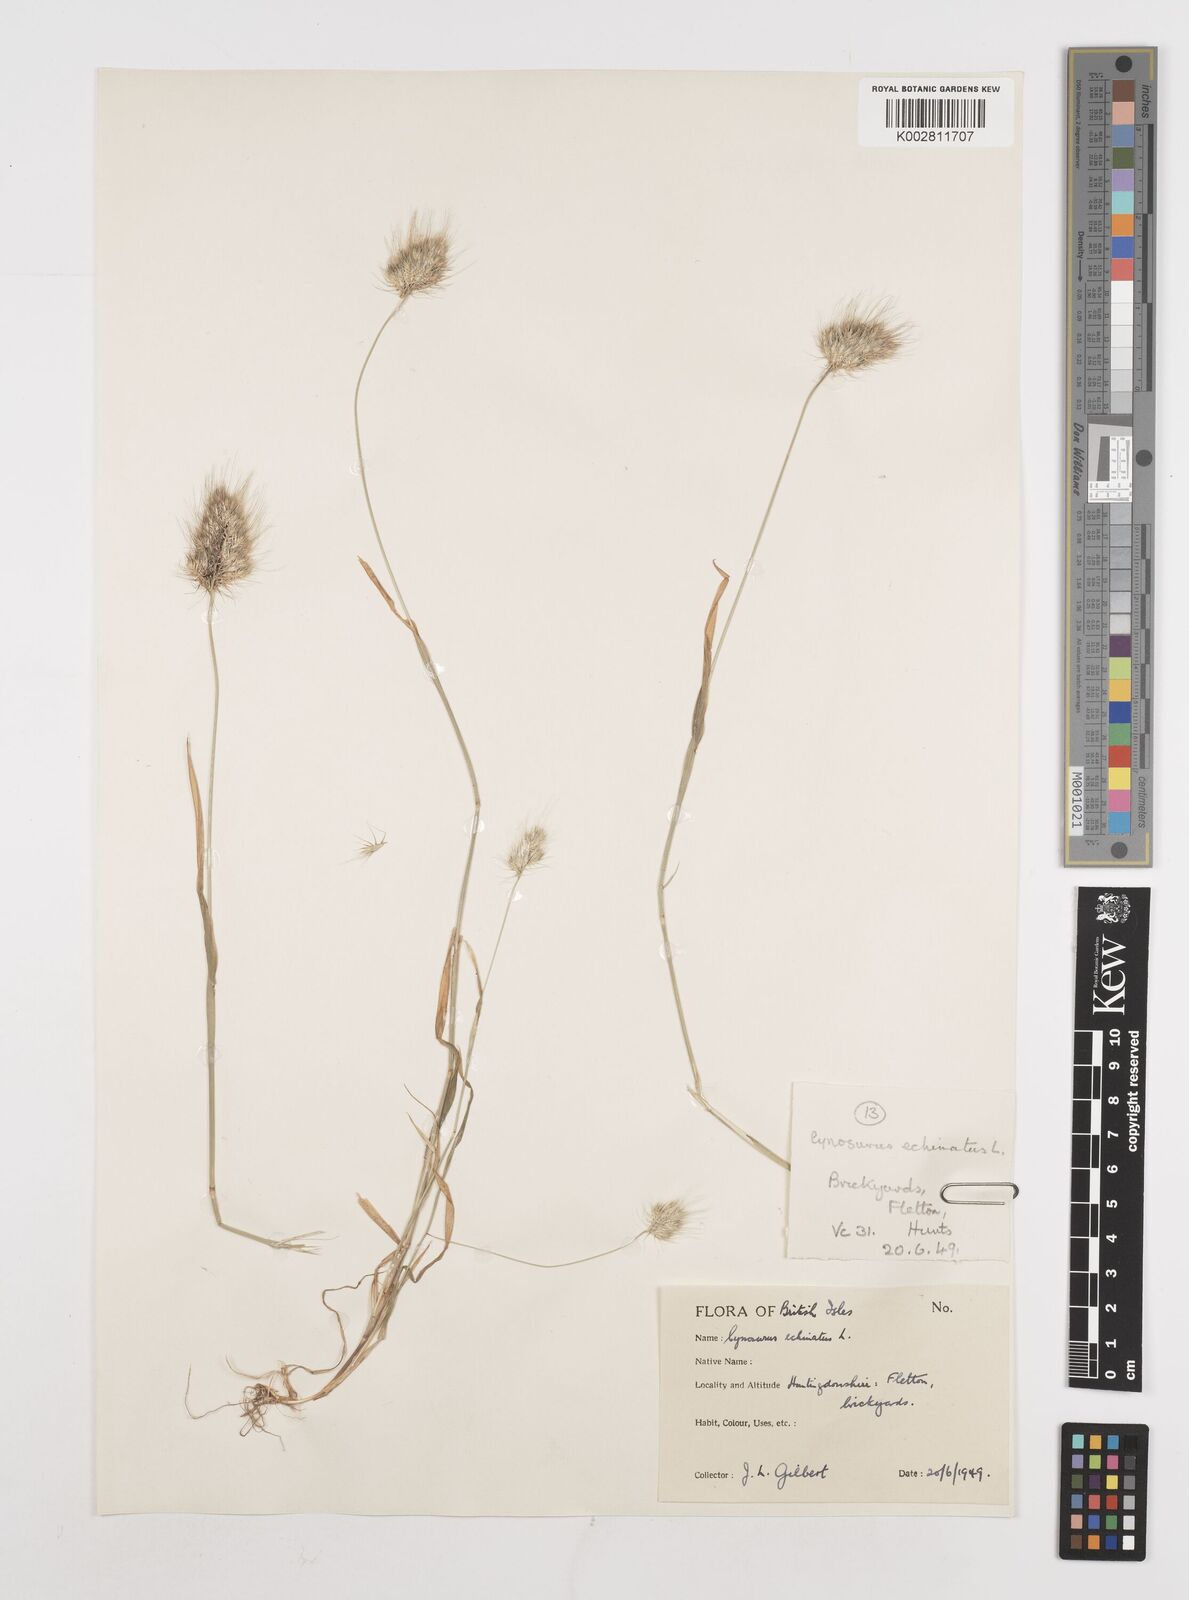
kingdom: Plantae
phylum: Tracheophyta
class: Liliopsida
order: Poales
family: Poaceae
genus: Cynosurus
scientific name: Cynosurus echinatus
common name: Rough dog's-tail
